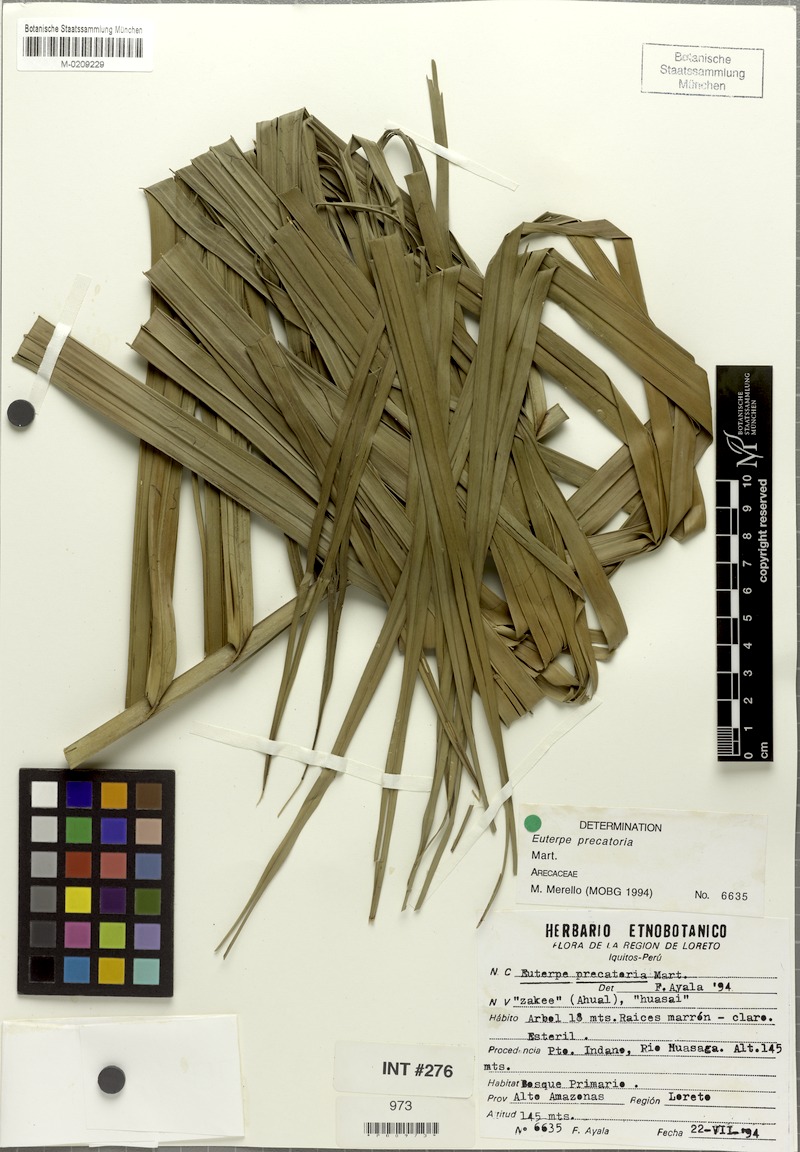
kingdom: Plantae
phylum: Tracheophyta
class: Liliopsida
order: Arecales
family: Arecaceae
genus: Euterpe
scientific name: Euterpe precatoria
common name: Mountain-cabbage
